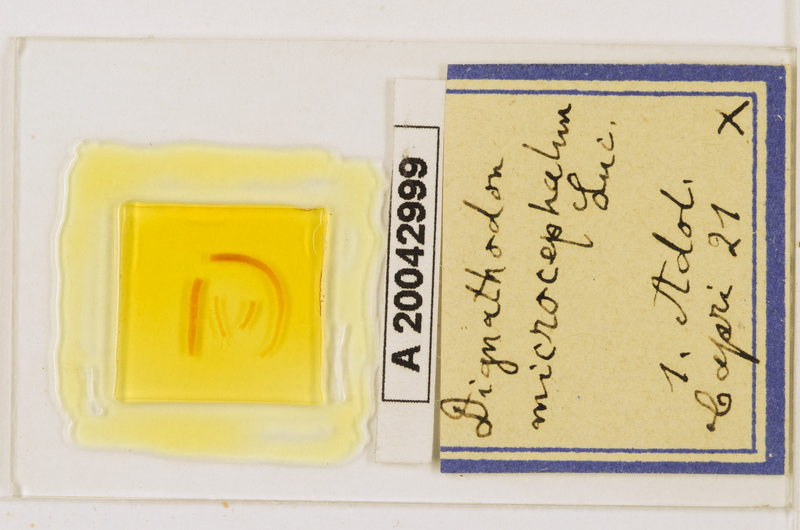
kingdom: Animalia
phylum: Arthropoda
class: Chilopoda
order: Geophilomorpha
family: Dignathodontidae
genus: Dignathodon
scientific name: Dignathodon microcephalus
